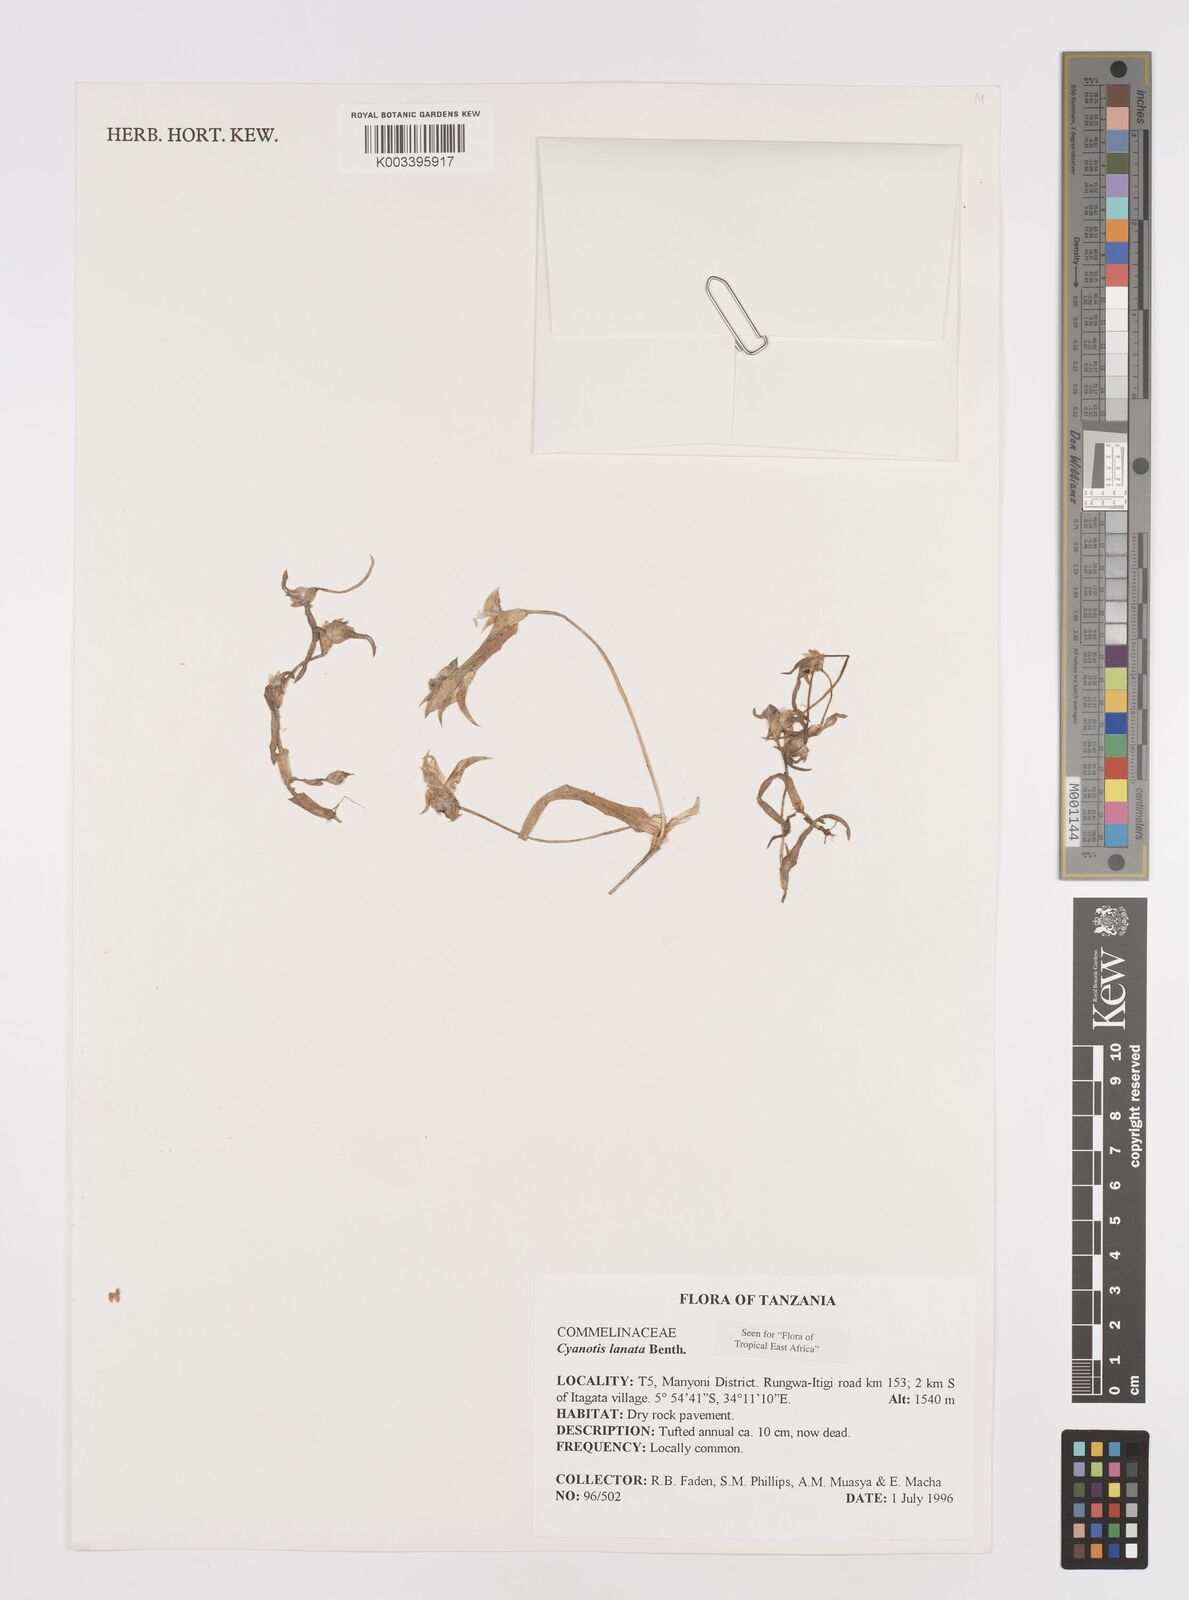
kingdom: Plantae
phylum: Tracheophyta
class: Liliopsida
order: Commelinales
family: Commelinaceae
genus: Cyanotis
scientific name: Cyanotis lanata
